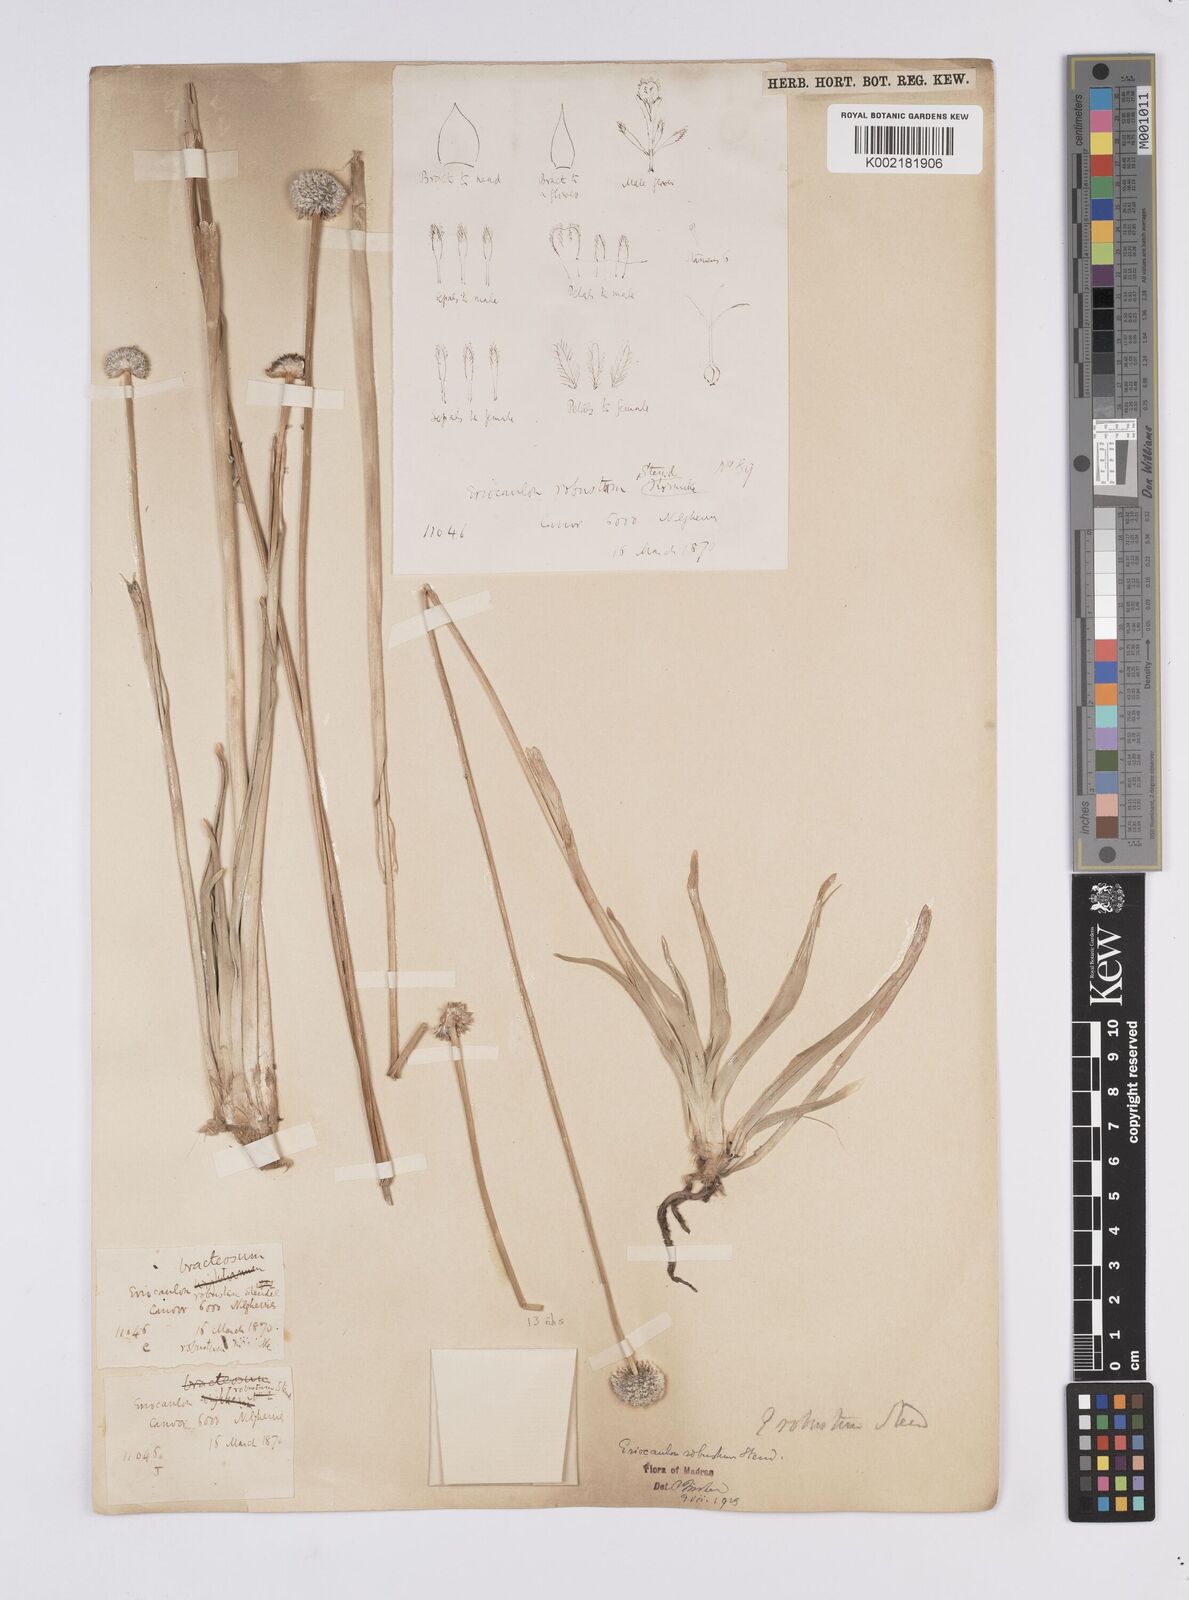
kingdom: Plantae
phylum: Tracheophyta
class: Liliopsida
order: Poales
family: Eriocaulaceae
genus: Eriocaulon
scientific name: Eriocaulon robustum
